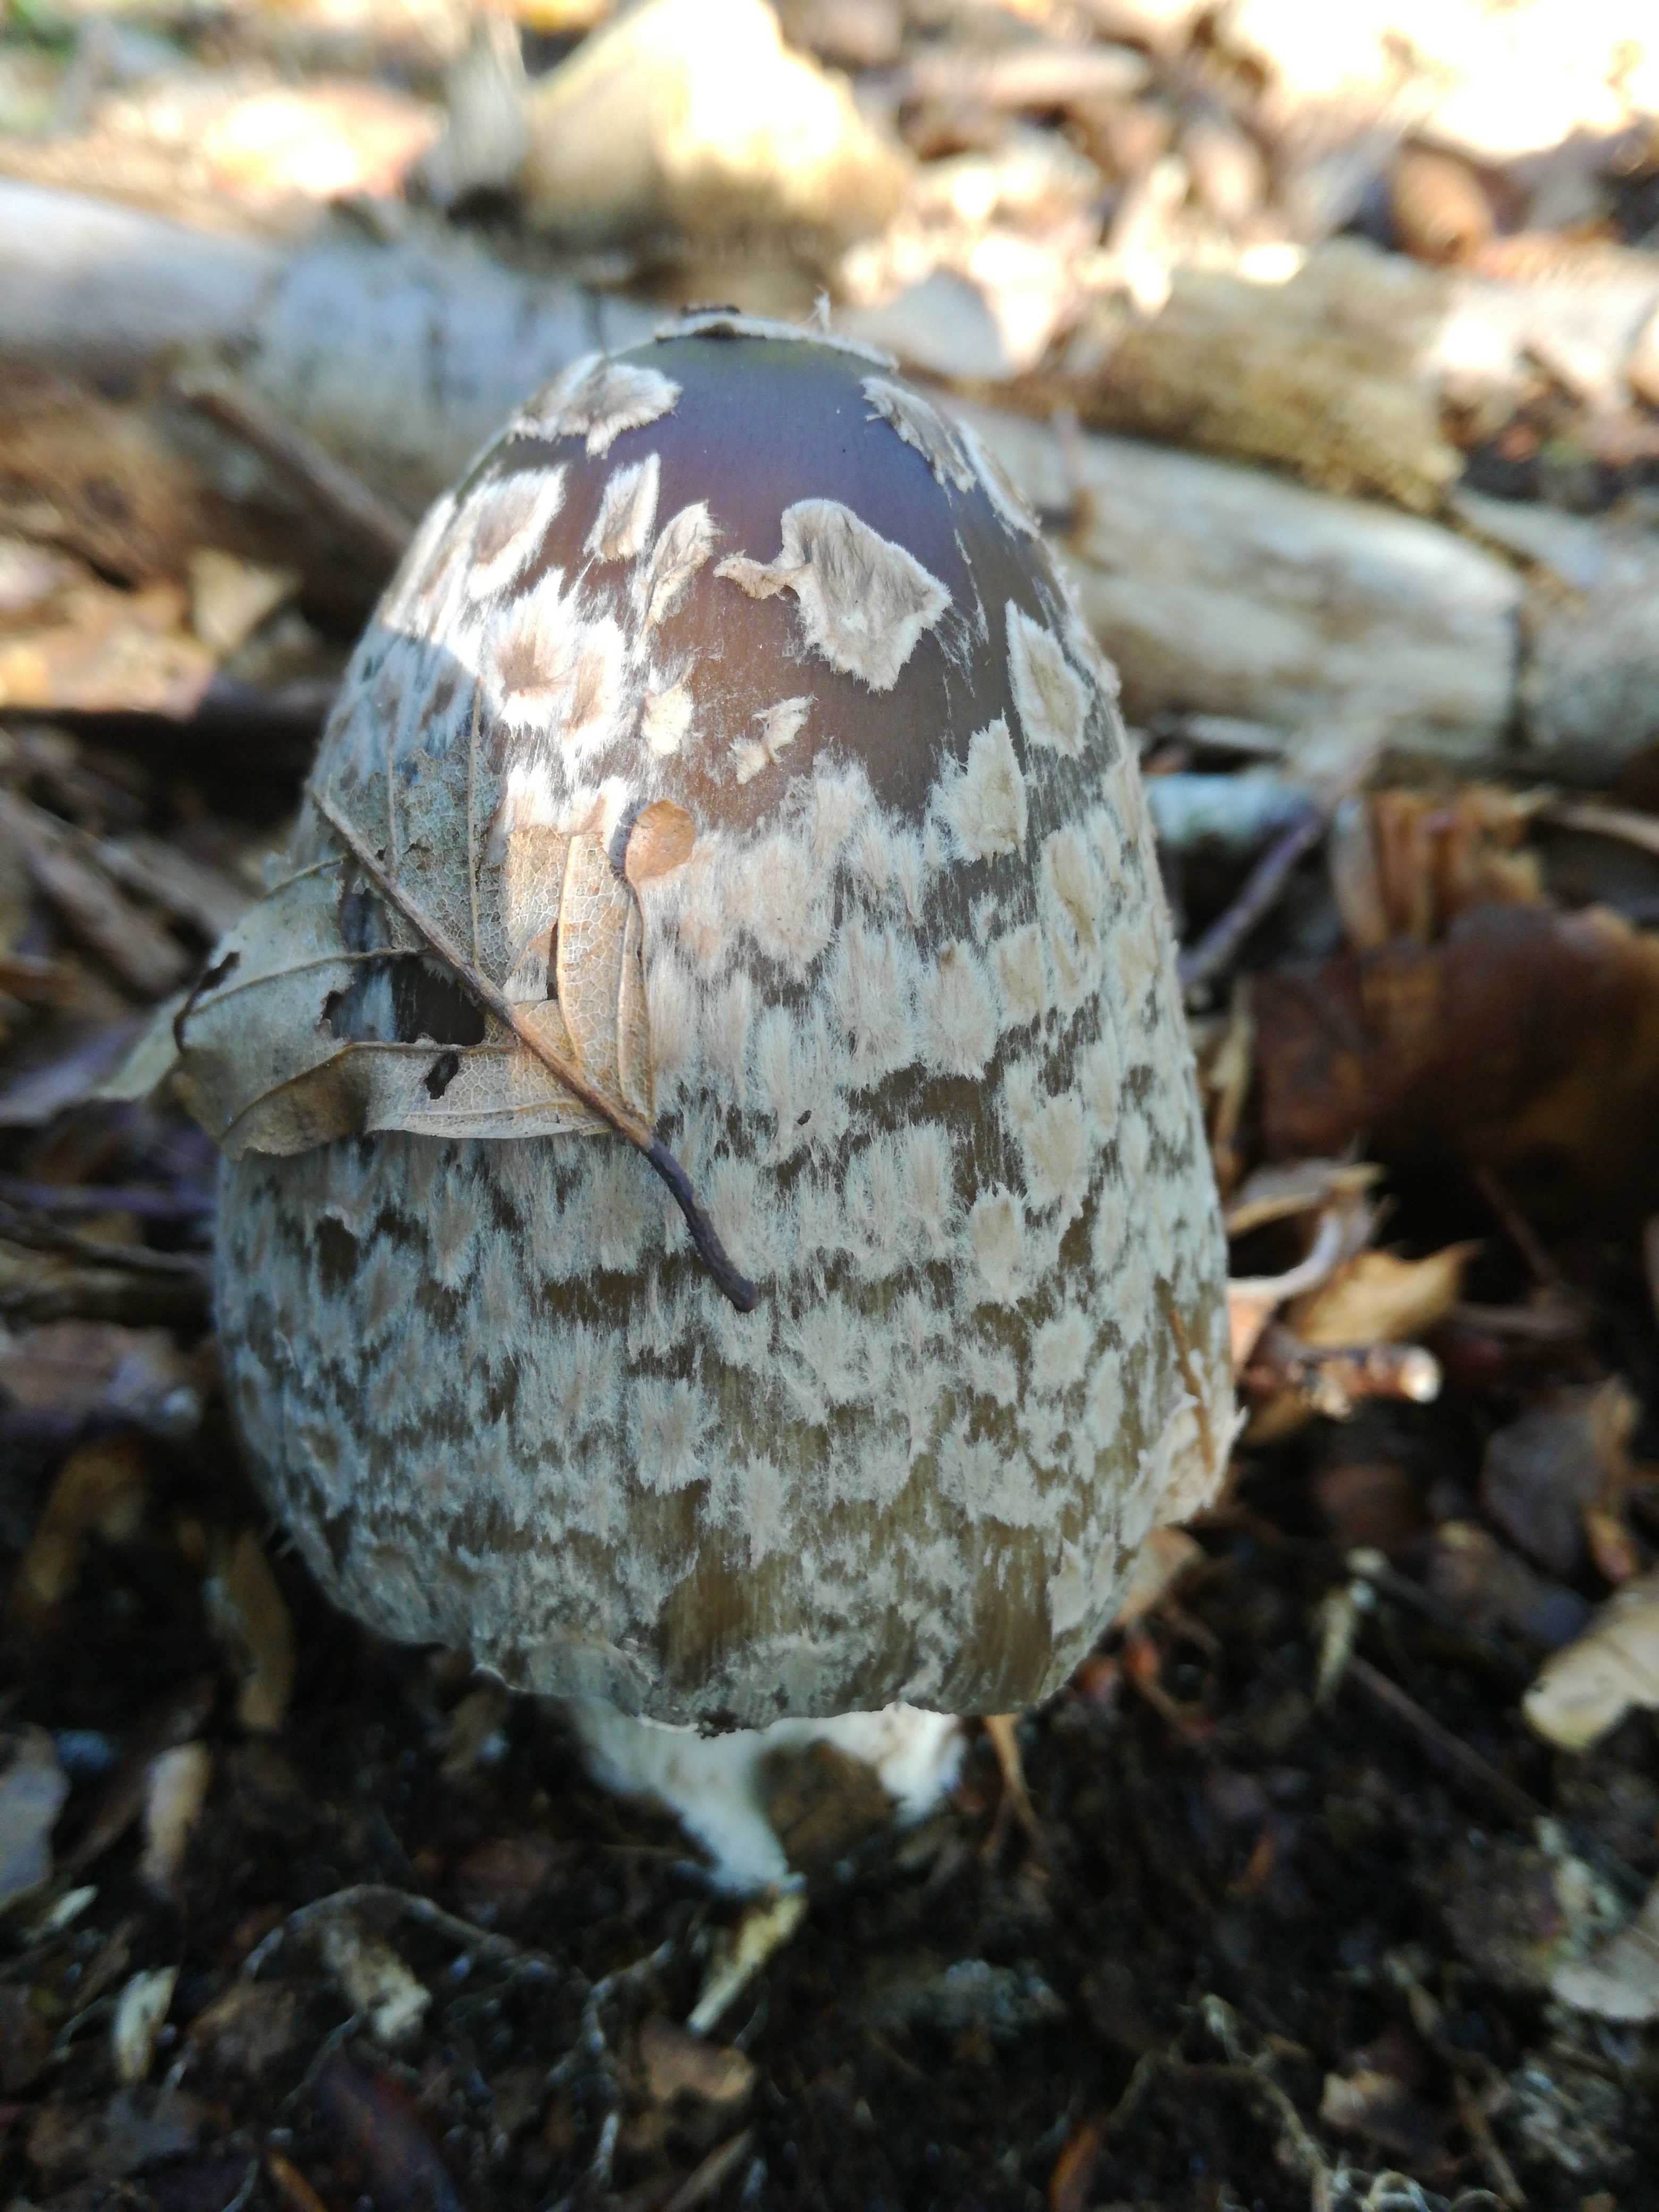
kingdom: Fungi
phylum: Basidiomycota
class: Agaricomycetes
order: Agaricales
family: Psathyrellaceae
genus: Coprinopsis
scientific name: Coprinopsis picacea
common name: skade-blækhat
